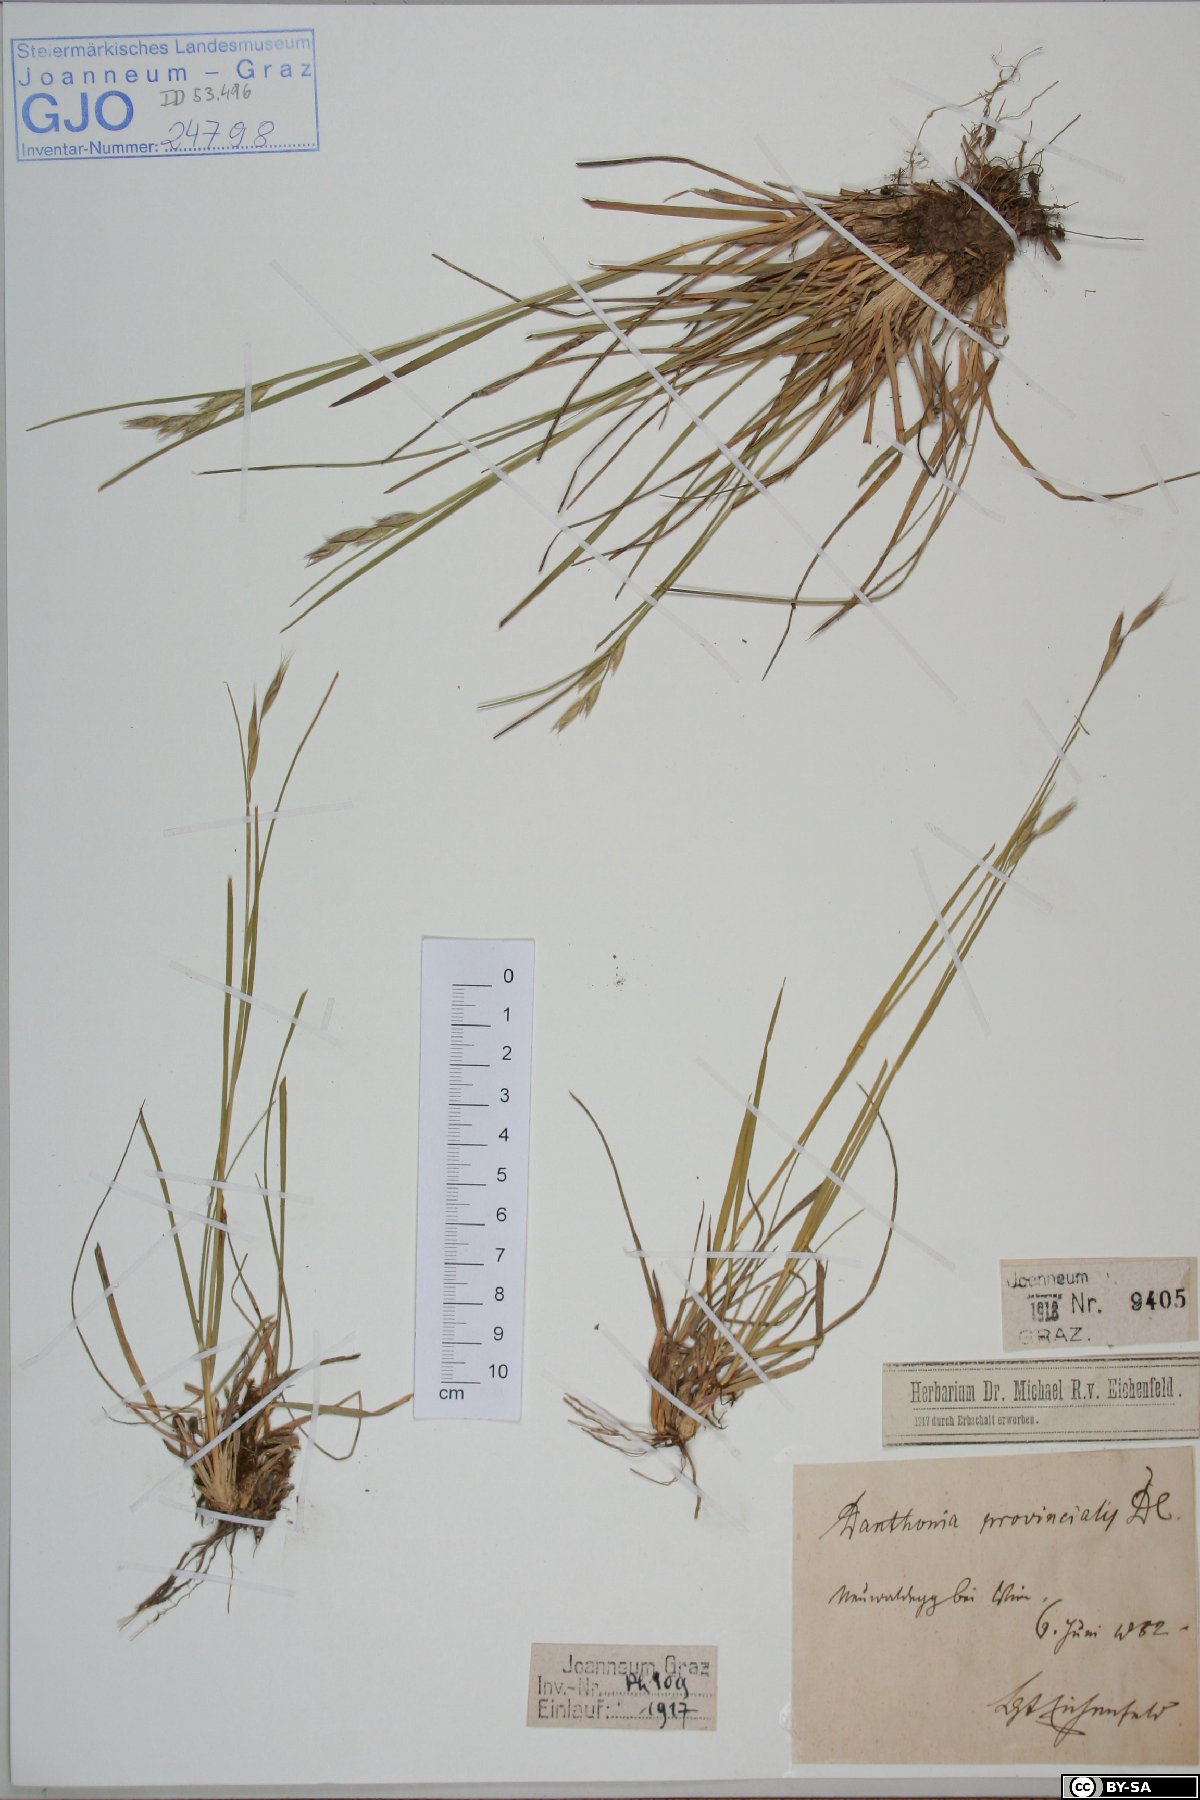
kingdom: Plantae
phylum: Tracheophyta
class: Liliopsida
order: Poales
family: Poaceae
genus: Danthonia
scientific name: Danthonia alpina
